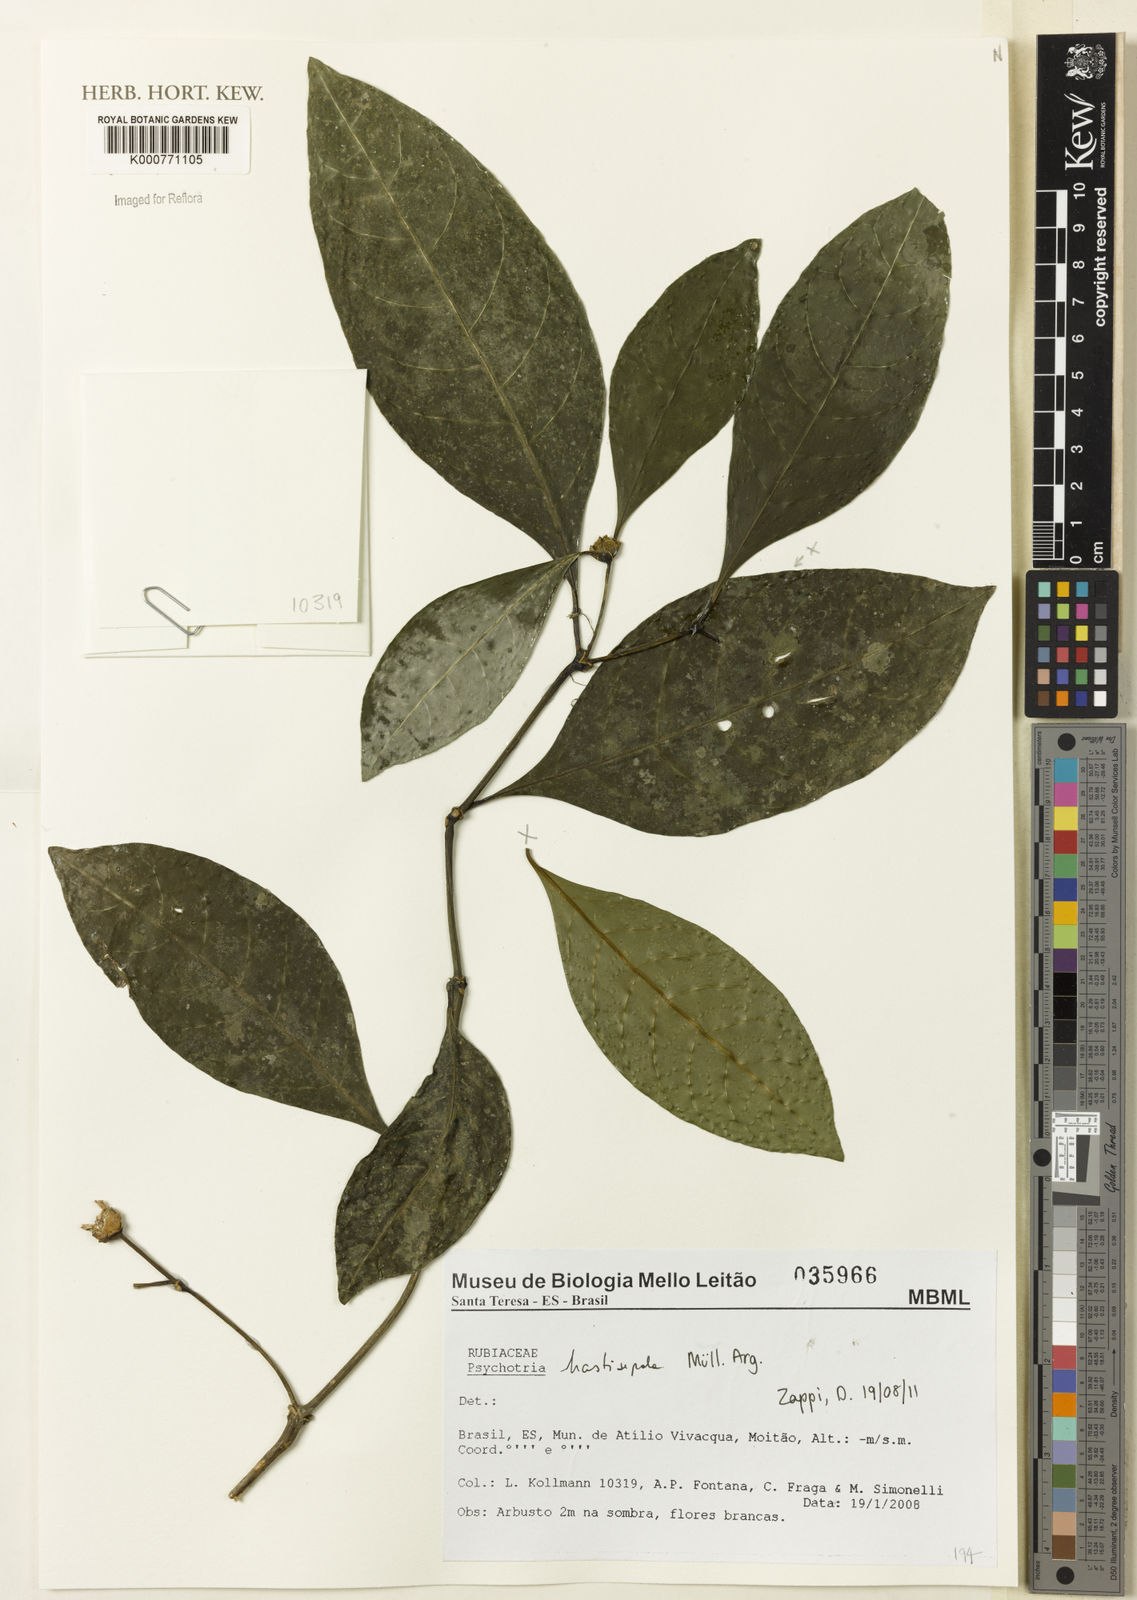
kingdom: Plantae
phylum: Tracheophyta
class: Magnoliopsida
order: Gentianales
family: Rubiaceae
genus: Psychotria
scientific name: Psychotria
